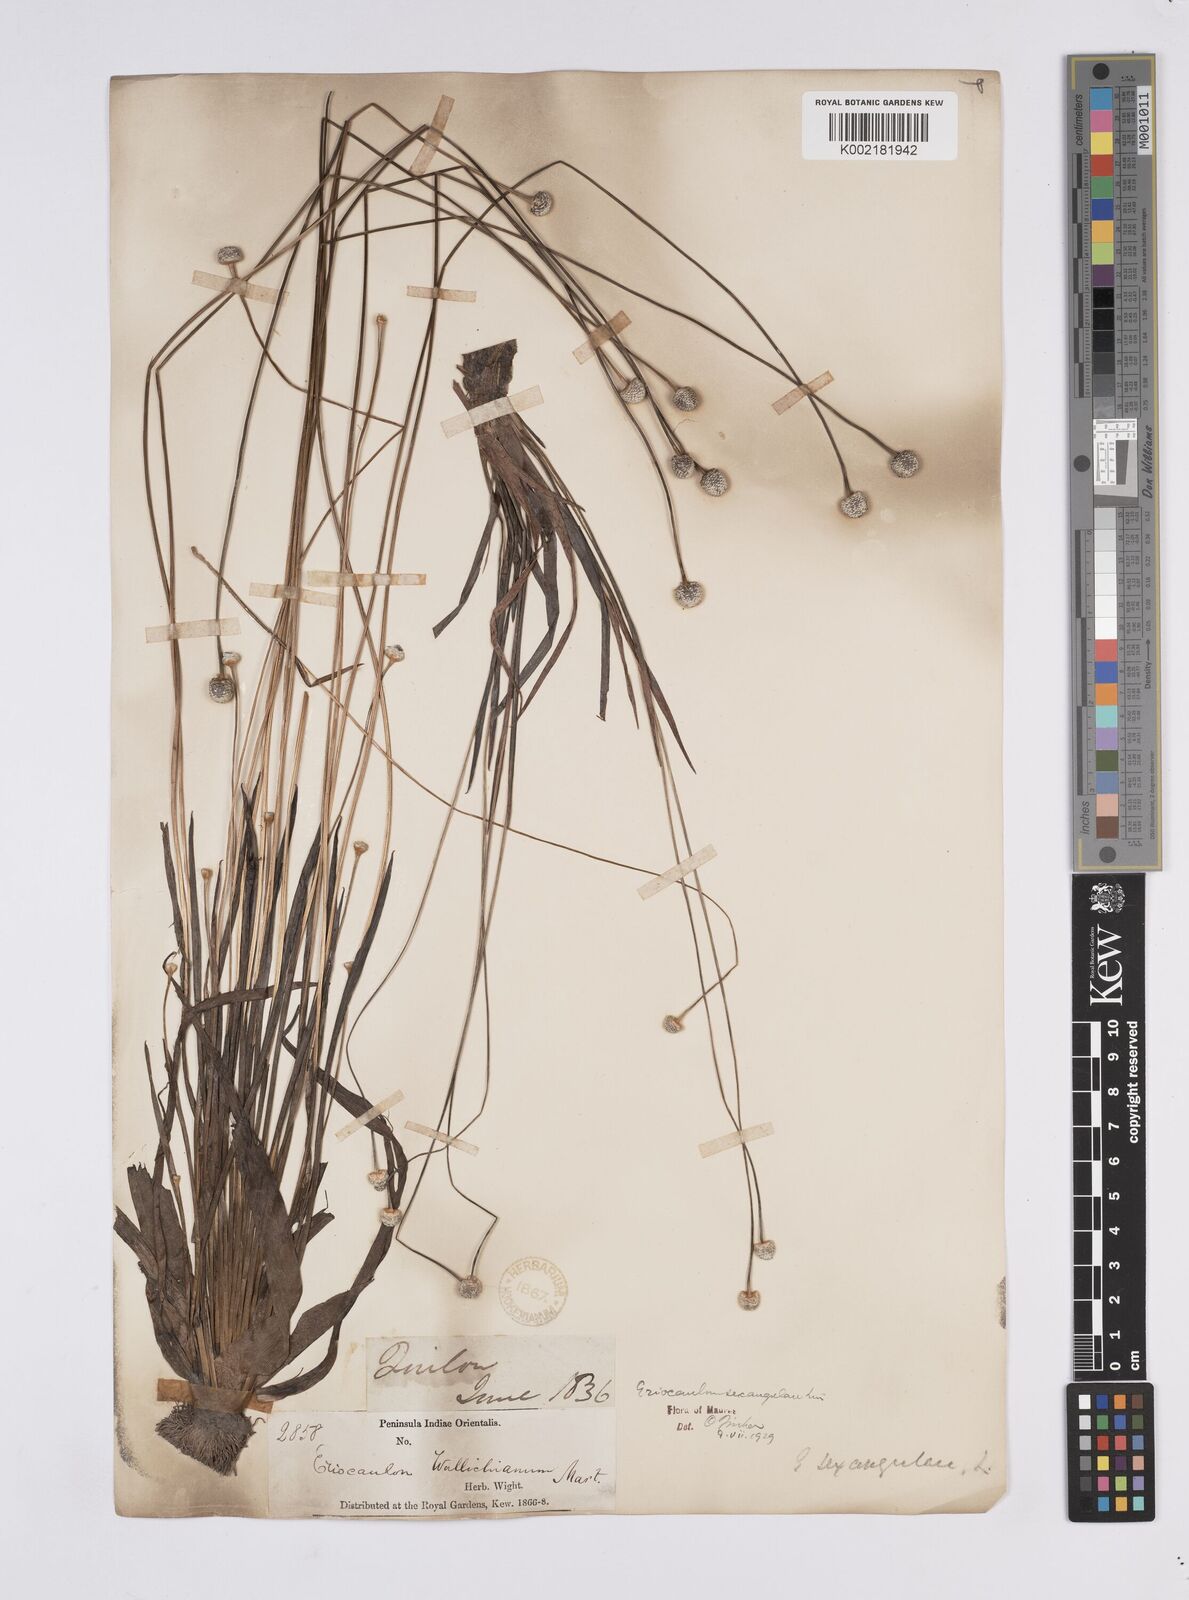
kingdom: Plantae
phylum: Tracheophyta
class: Liliopsida
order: Poales
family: Eriocaulaceae
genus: Eriocaulon
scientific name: Eriocaulon sexangulare
